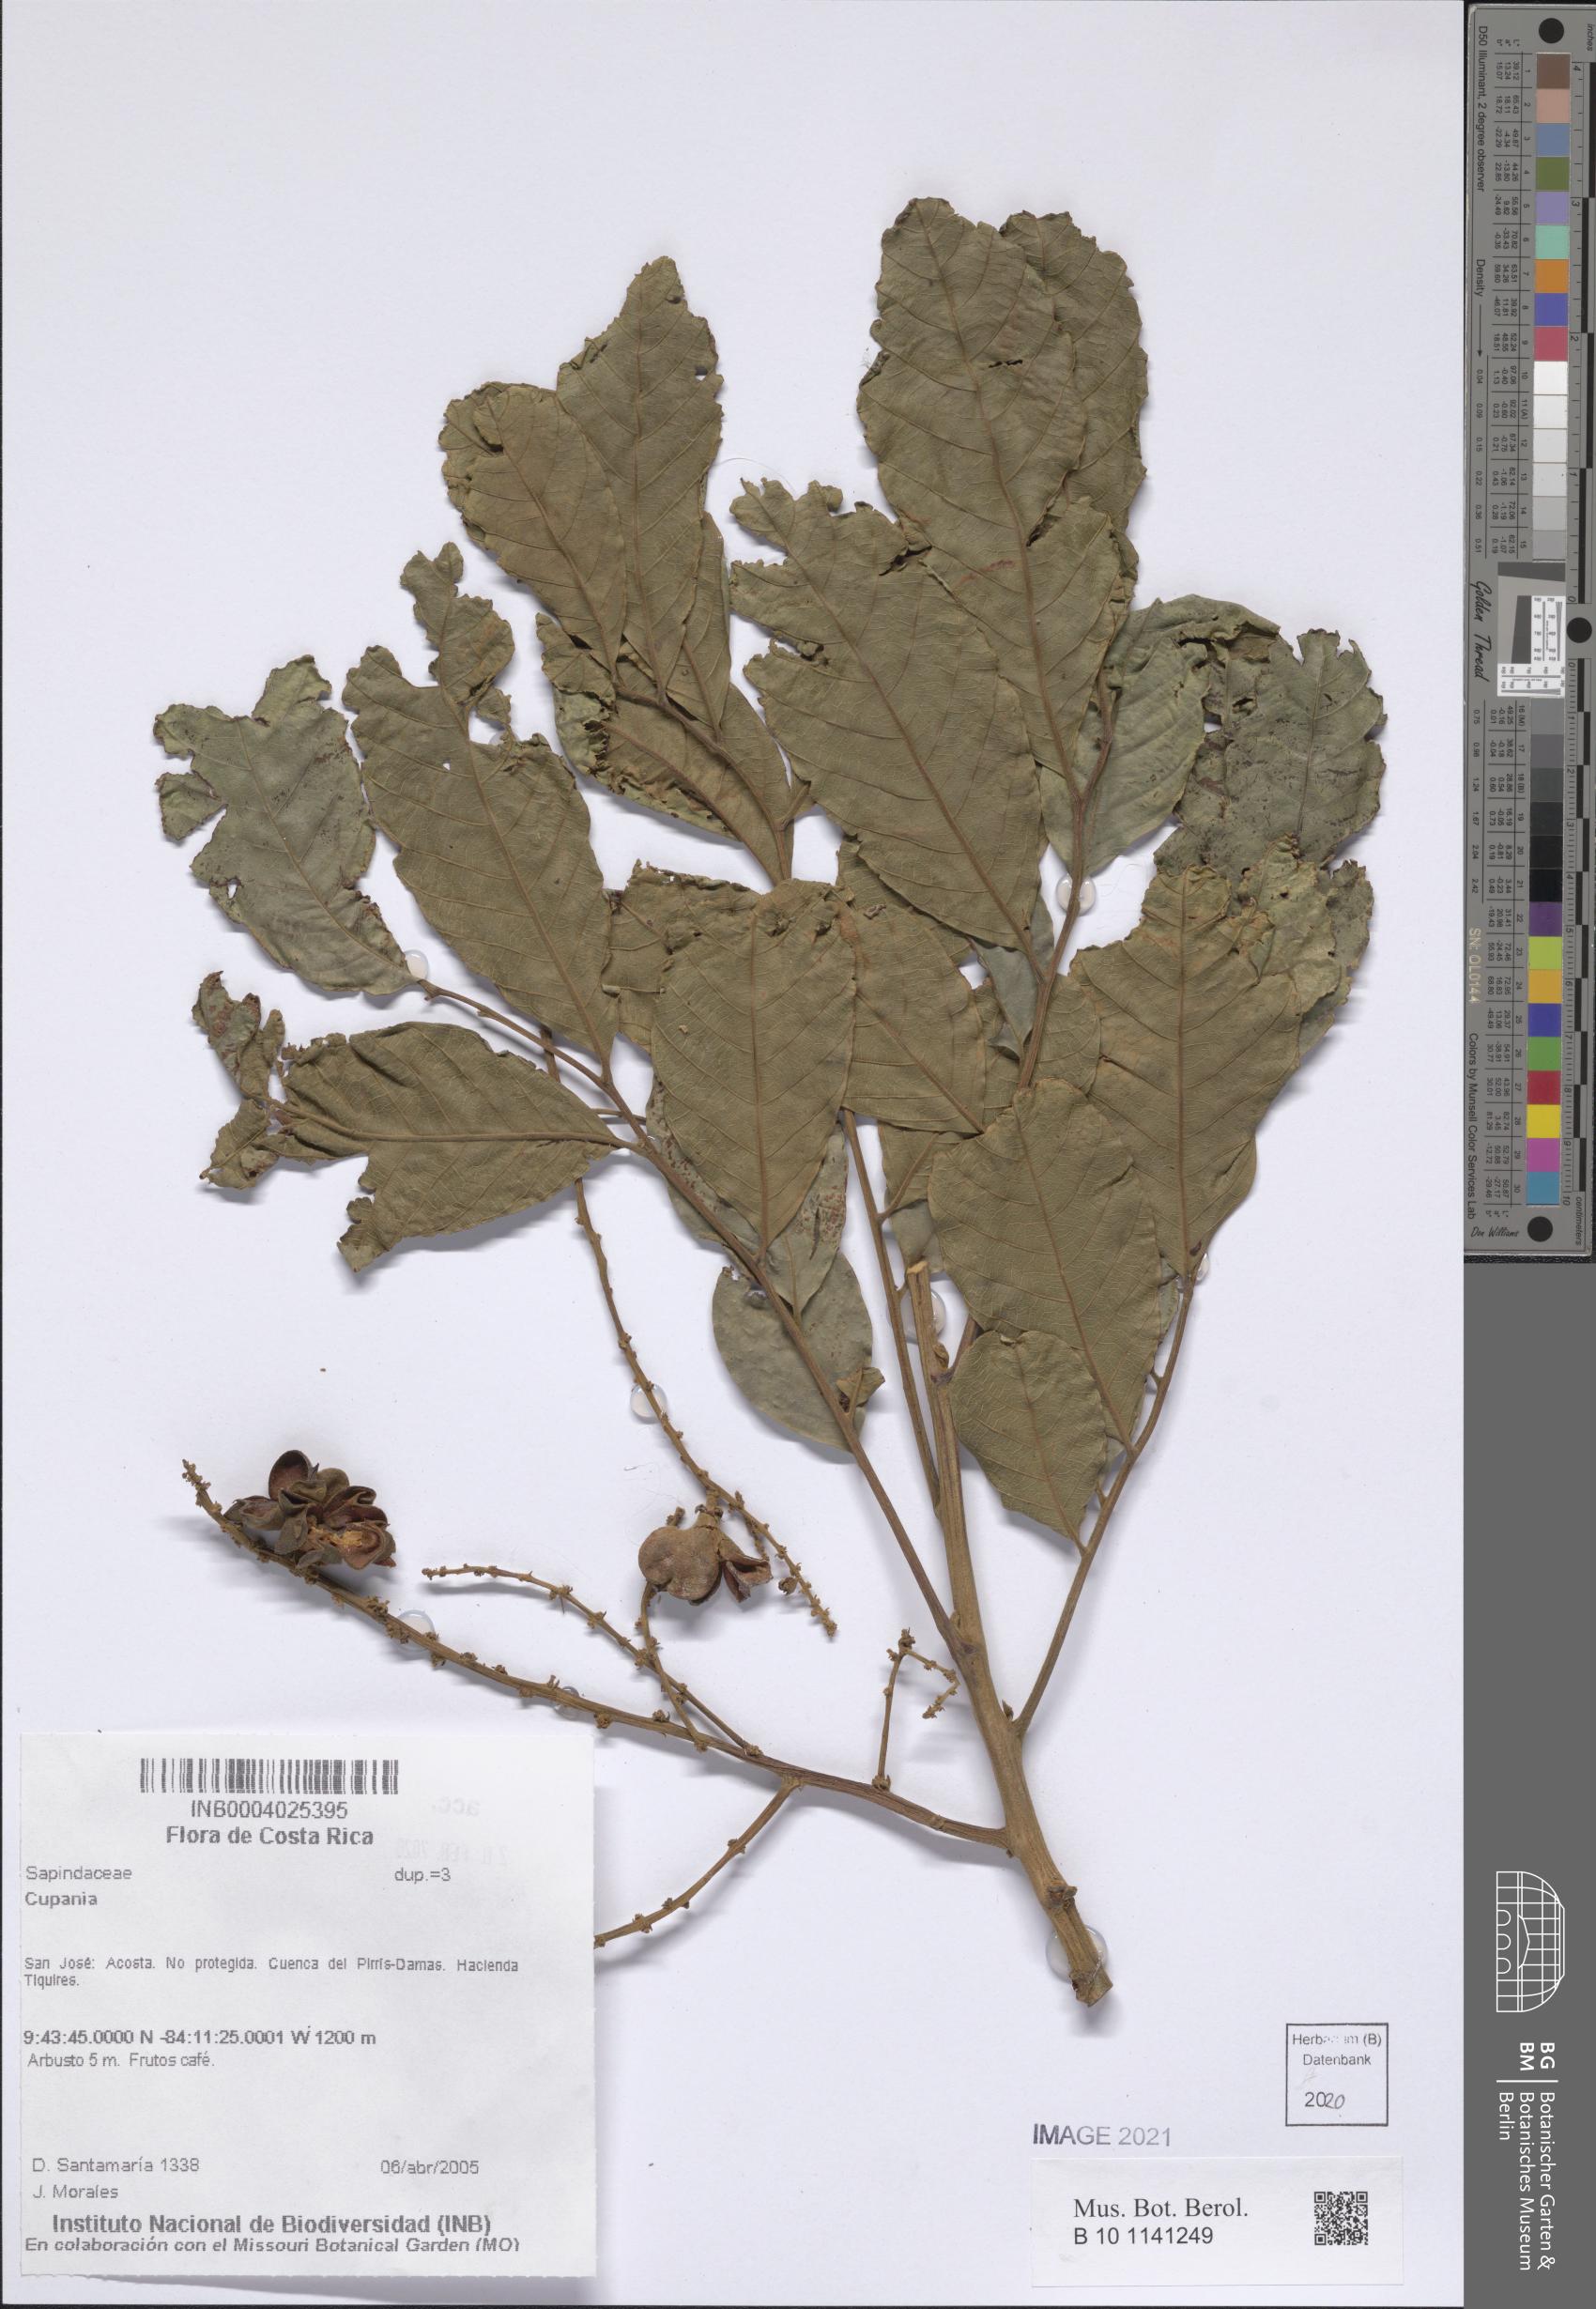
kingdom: Plantae
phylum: Tracheophyta
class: Magnoliopsida
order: Sapindales
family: Sapindaceae
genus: Cupania
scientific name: Cupania
